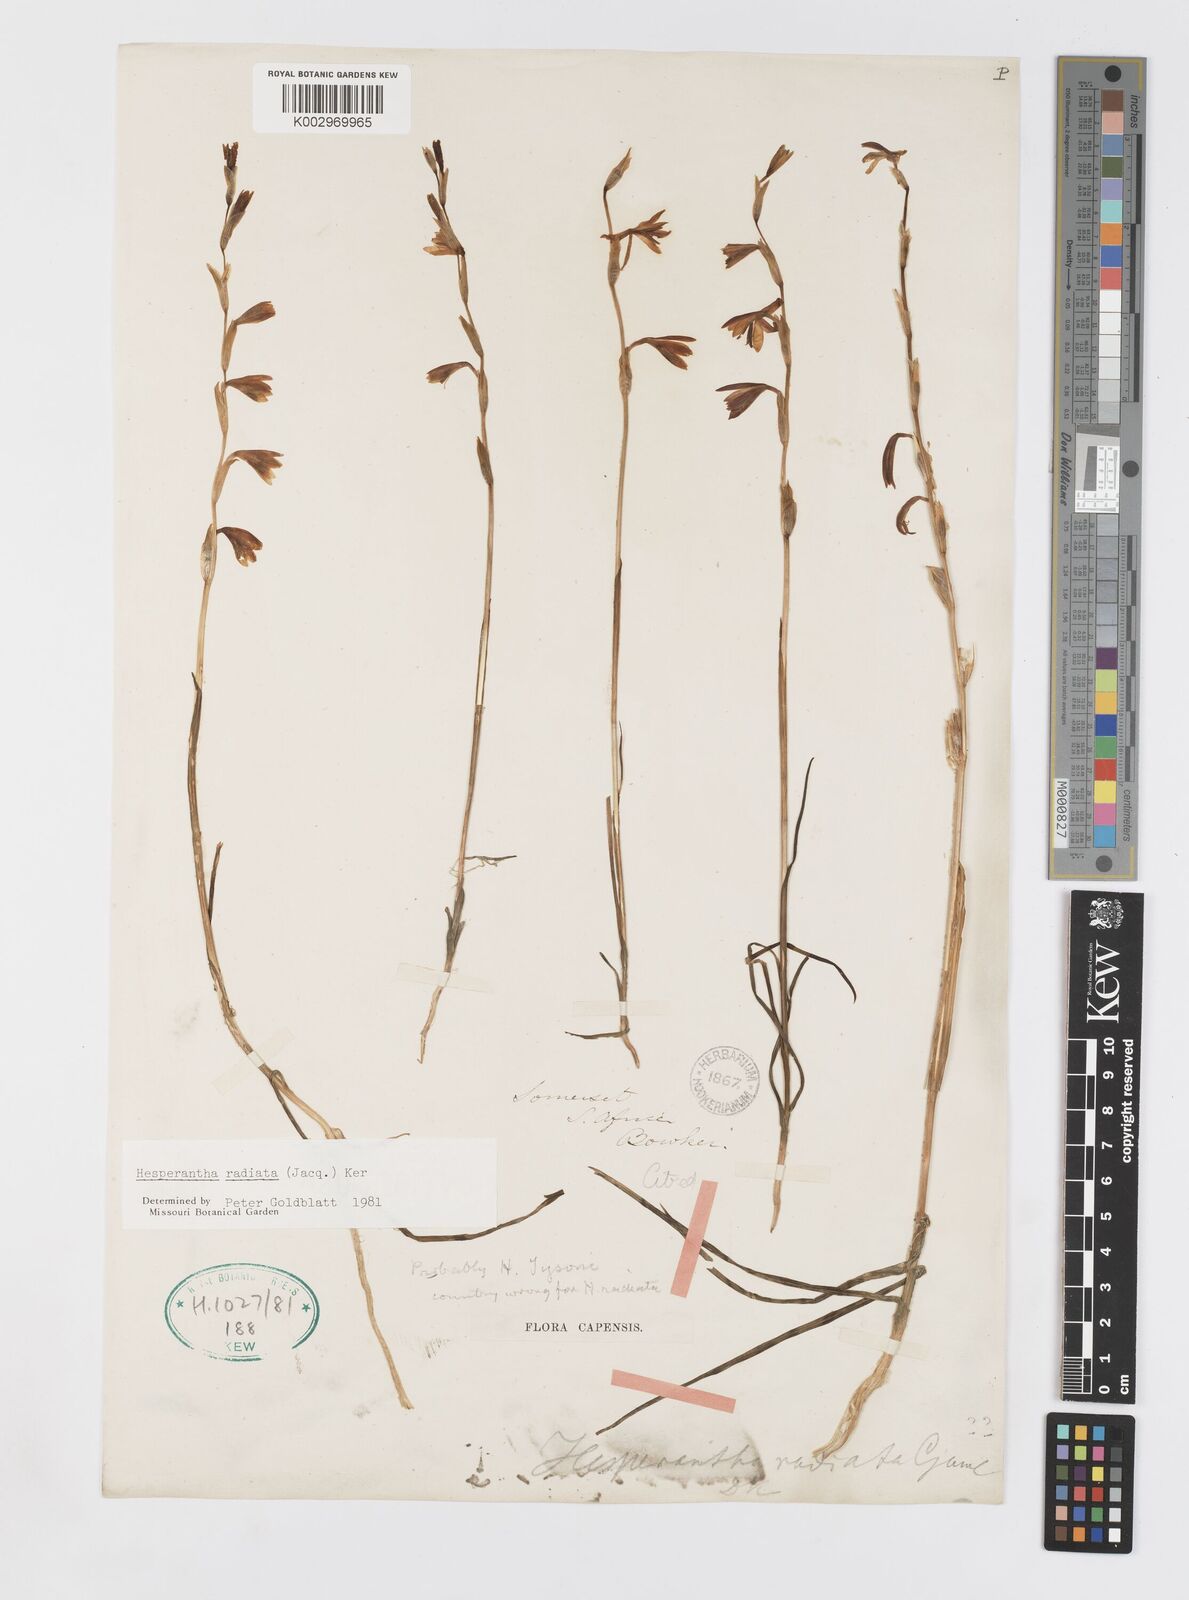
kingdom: Plantae
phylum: Tracheophyta
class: Liliopsida
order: Asparagales
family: Iridaceae
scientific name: Iridaceae
